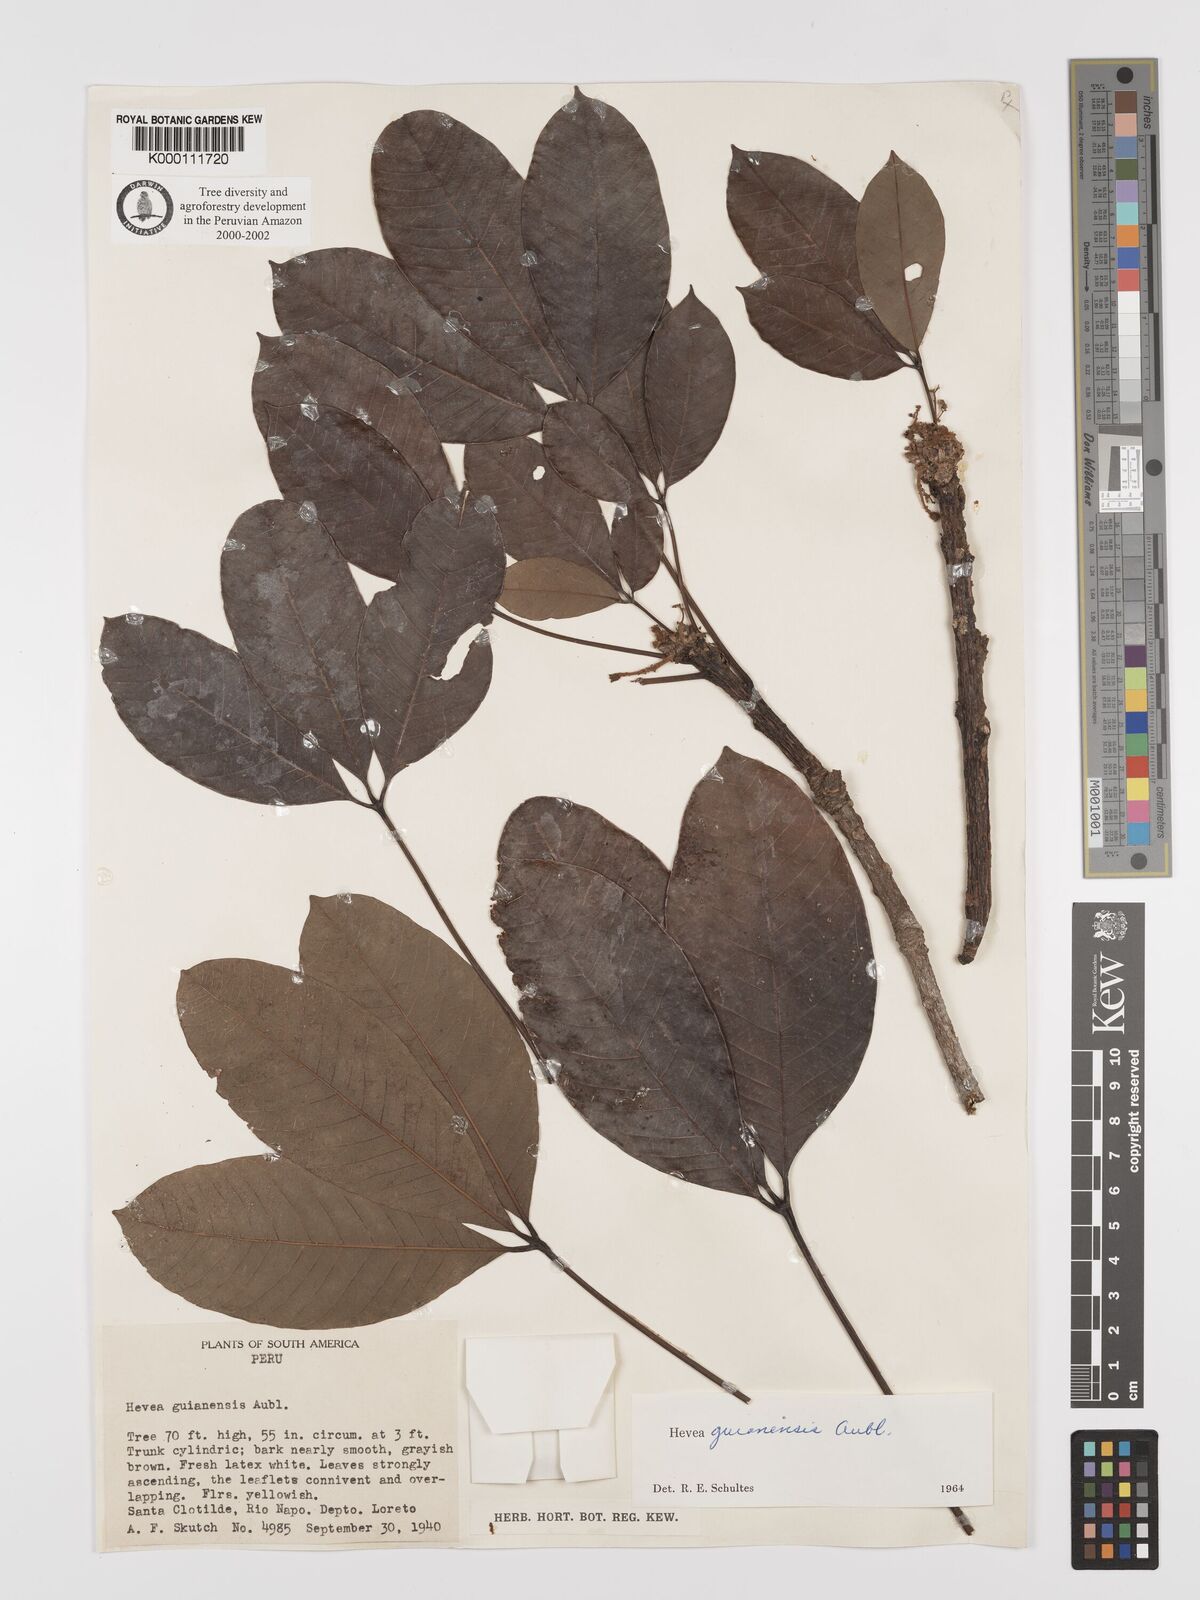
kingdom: Plantae
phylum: Tracheophyta
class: Magnoliopsida
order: Malpighiales
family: Euphorbiaceae
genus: Hevea
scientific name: Hevea guianensis
